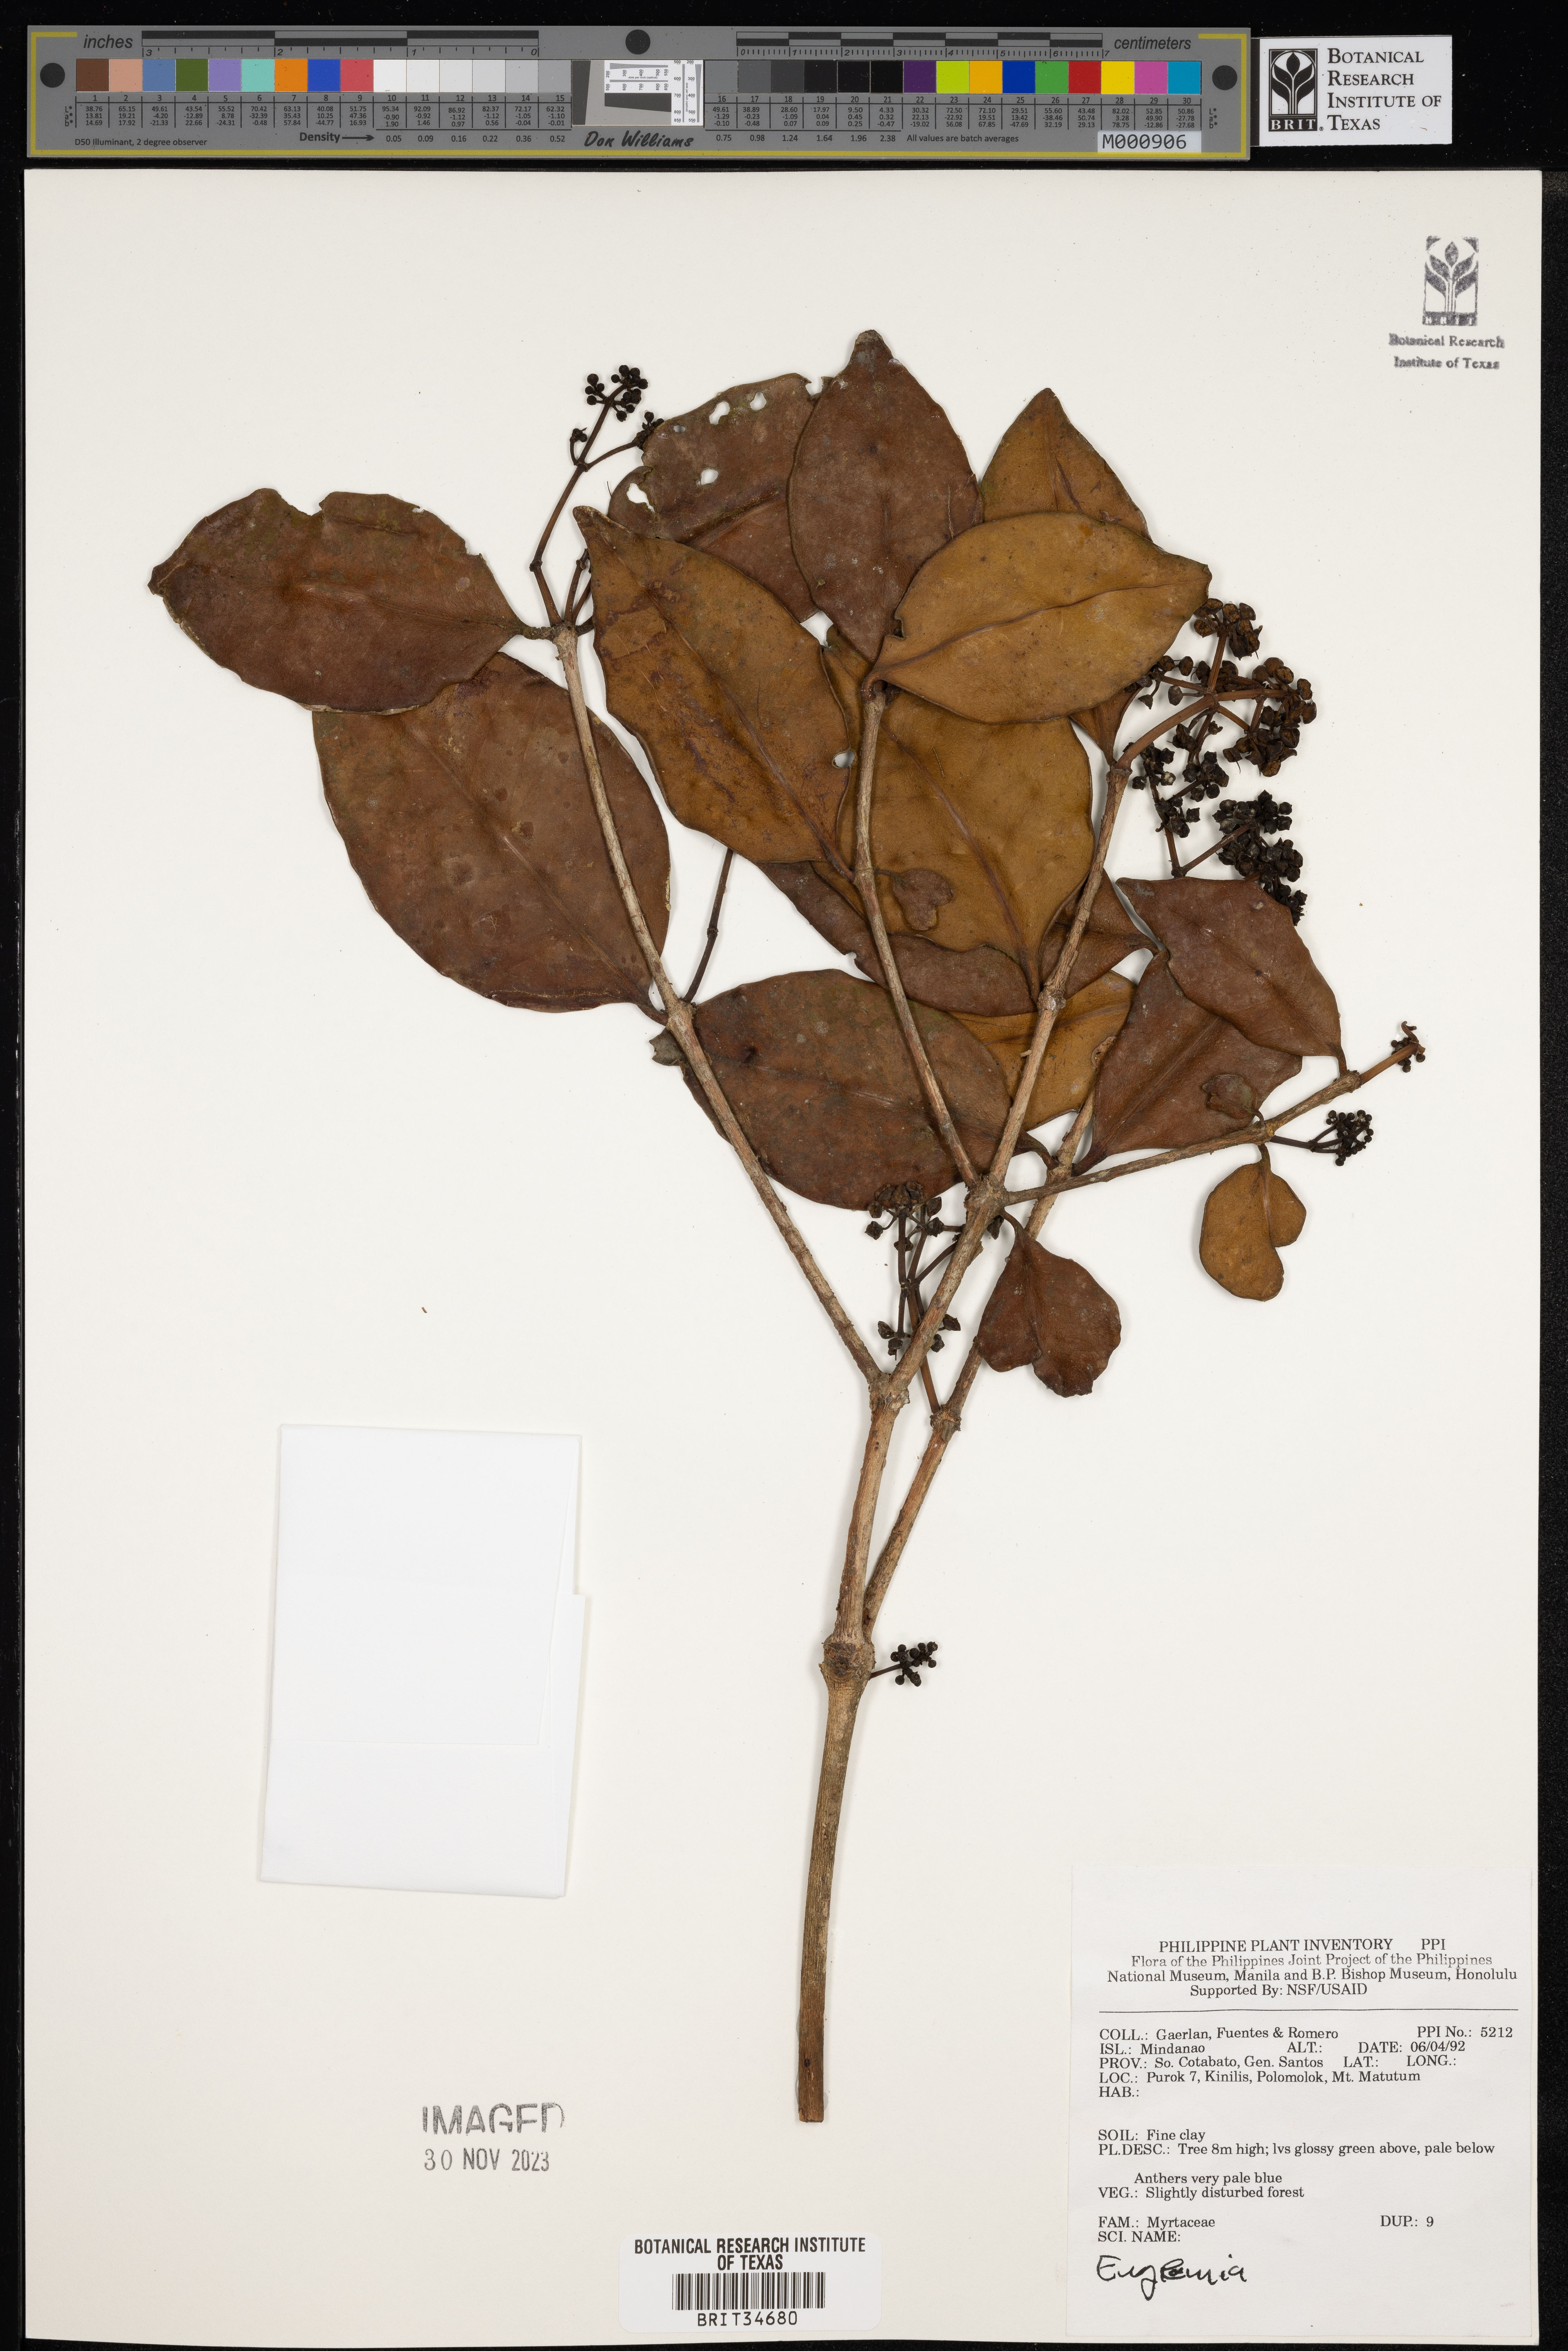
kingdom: Plantae
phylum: Tracheophyta
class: Magnoliopsida
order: Myrtales
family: Myrtaceae
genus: Eugenia
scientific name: Eugenia
